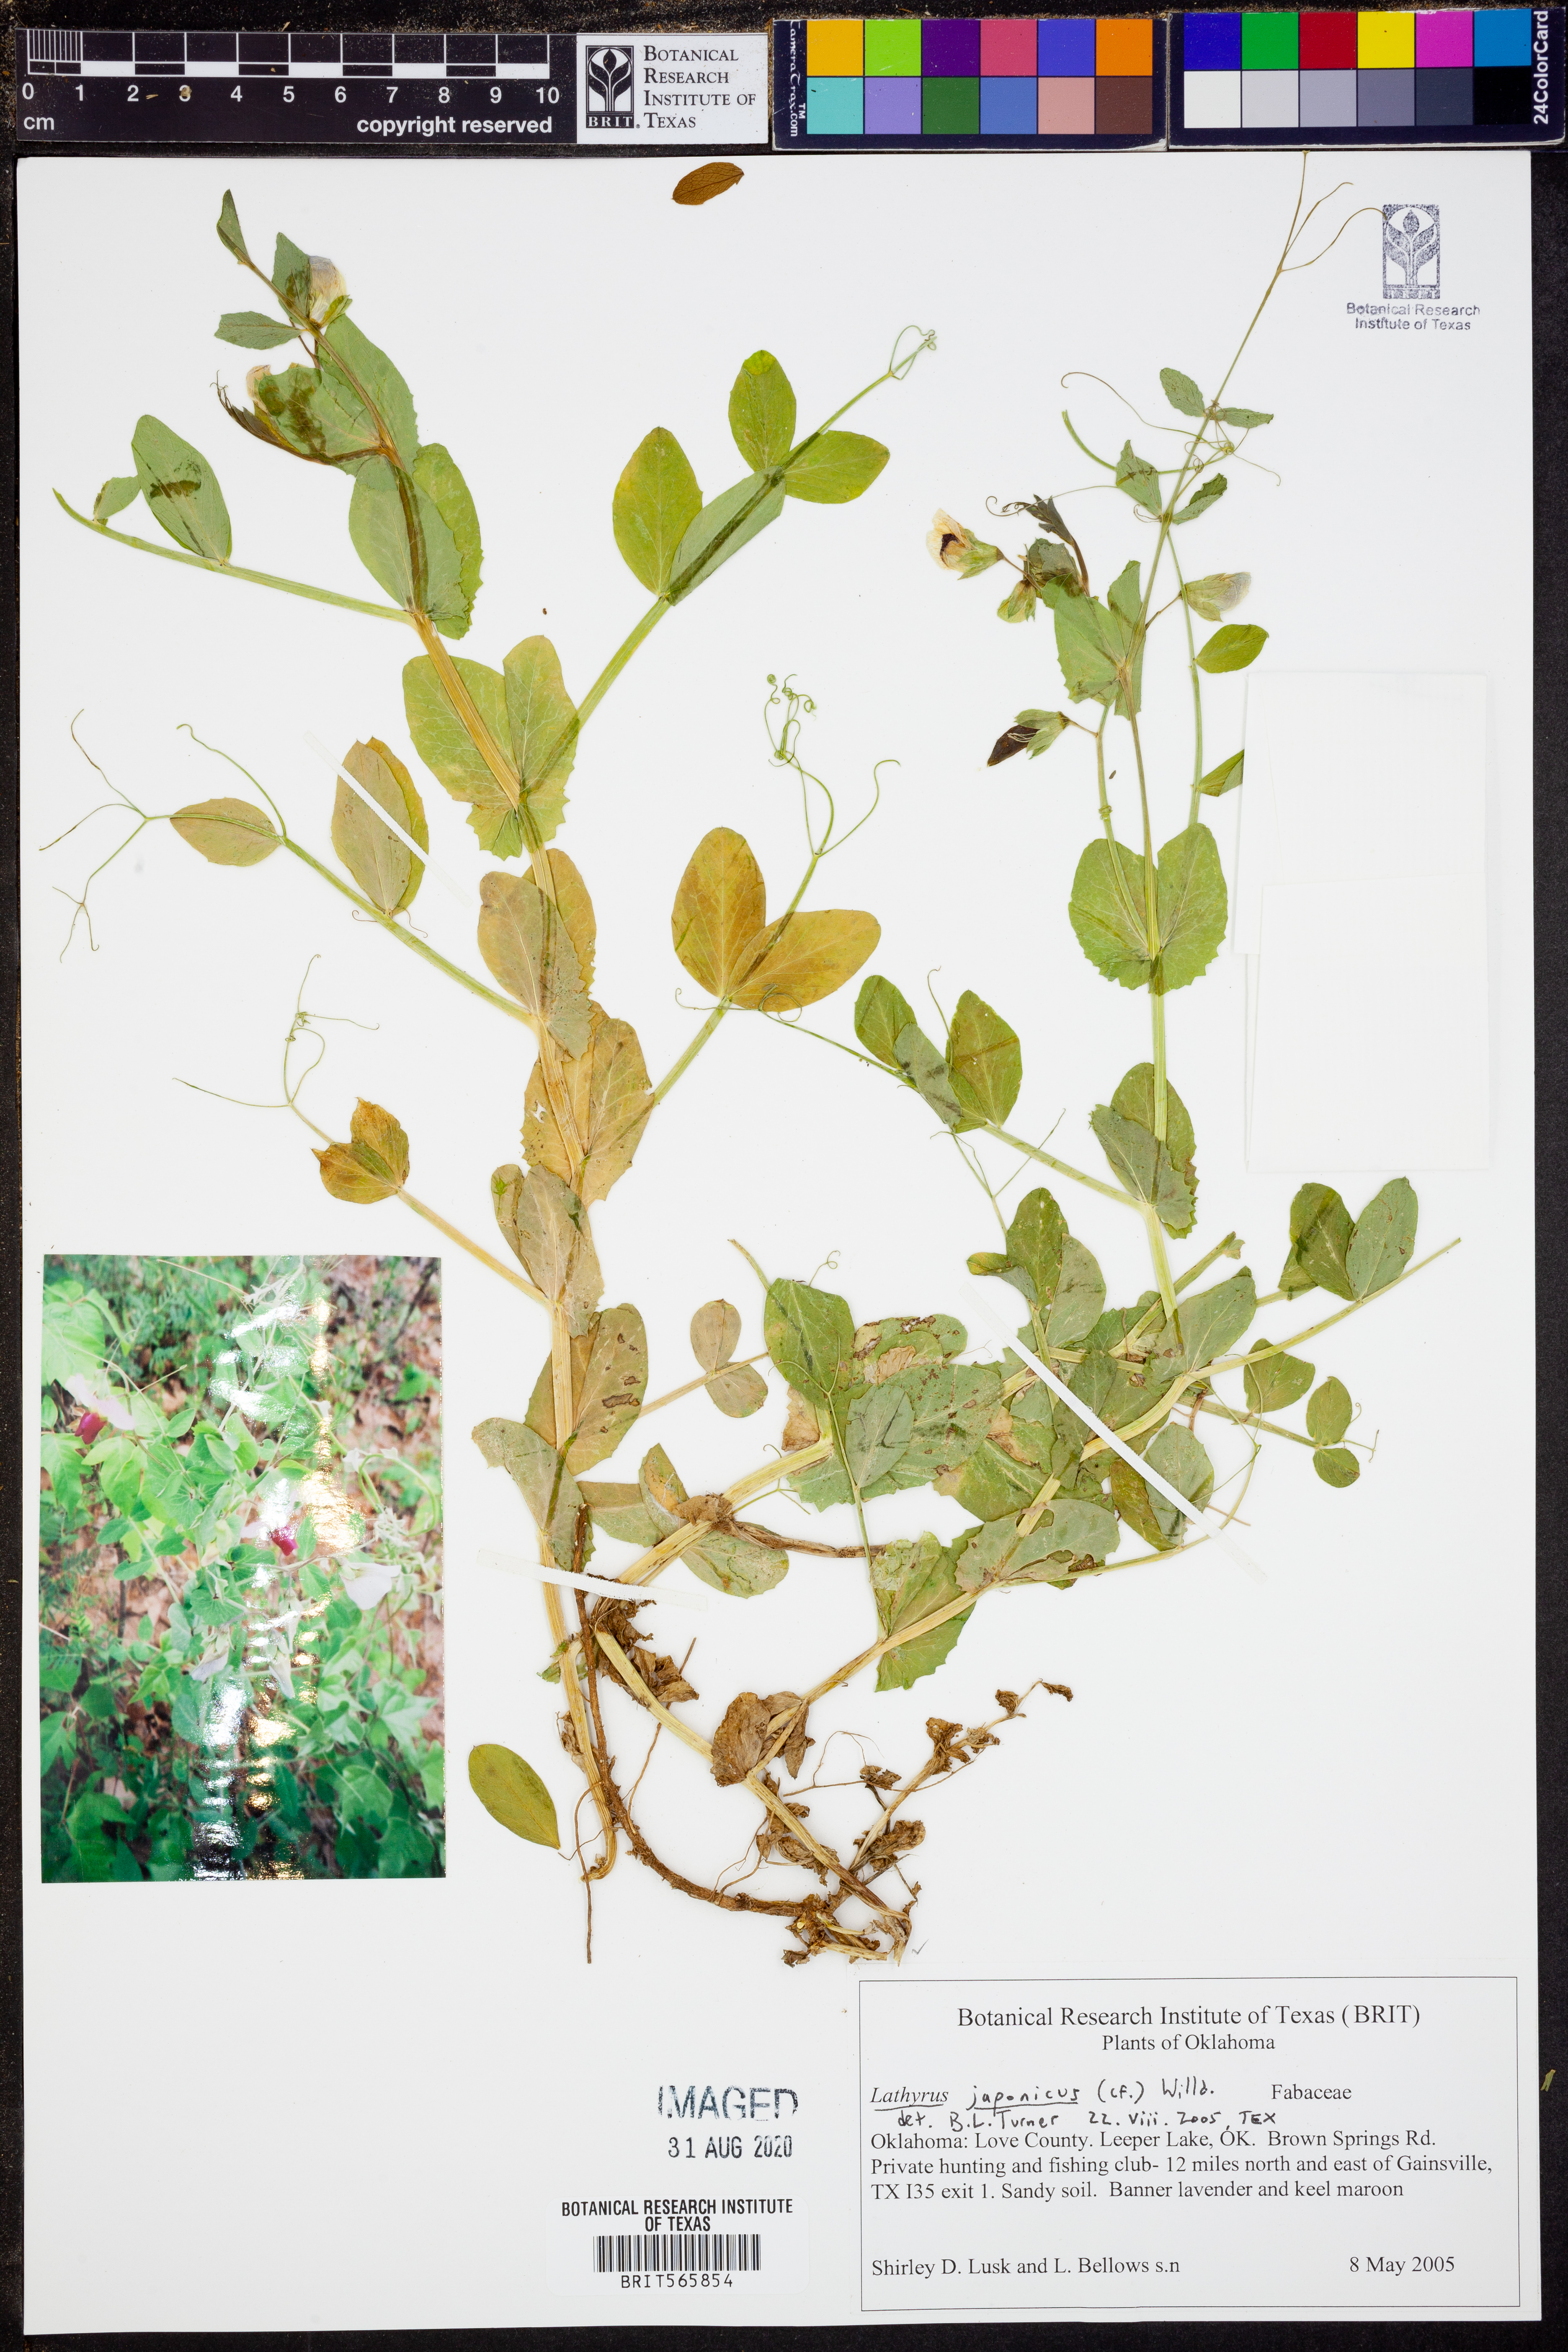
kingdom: Plantae
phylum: Tracheophyta
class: Magnoliopsida
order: Fabales
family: Fabaceae
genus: Lathyrus
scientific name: Lathyrus japonicus
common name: Sea pea
